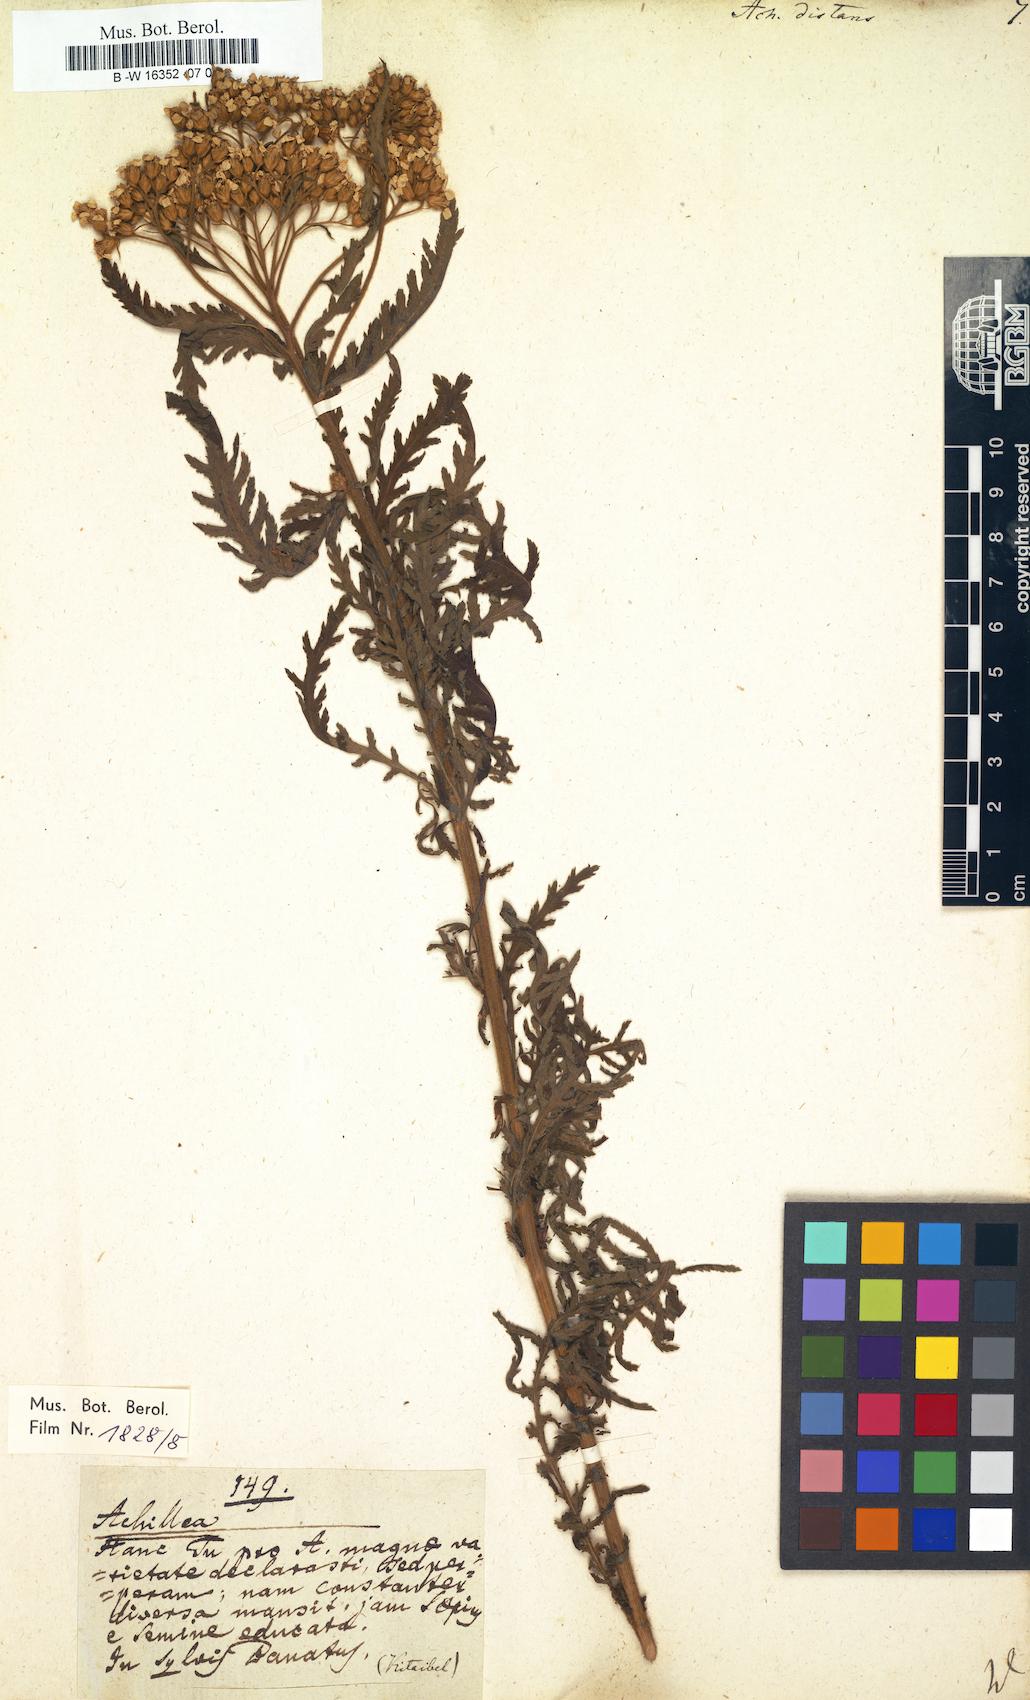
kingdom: Plantae
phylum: Tracheophyta
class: Magnoliopsida
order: Asterales
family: Asteraceae
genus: Achillea
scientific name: Achillea distans
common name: Tall yarrow
